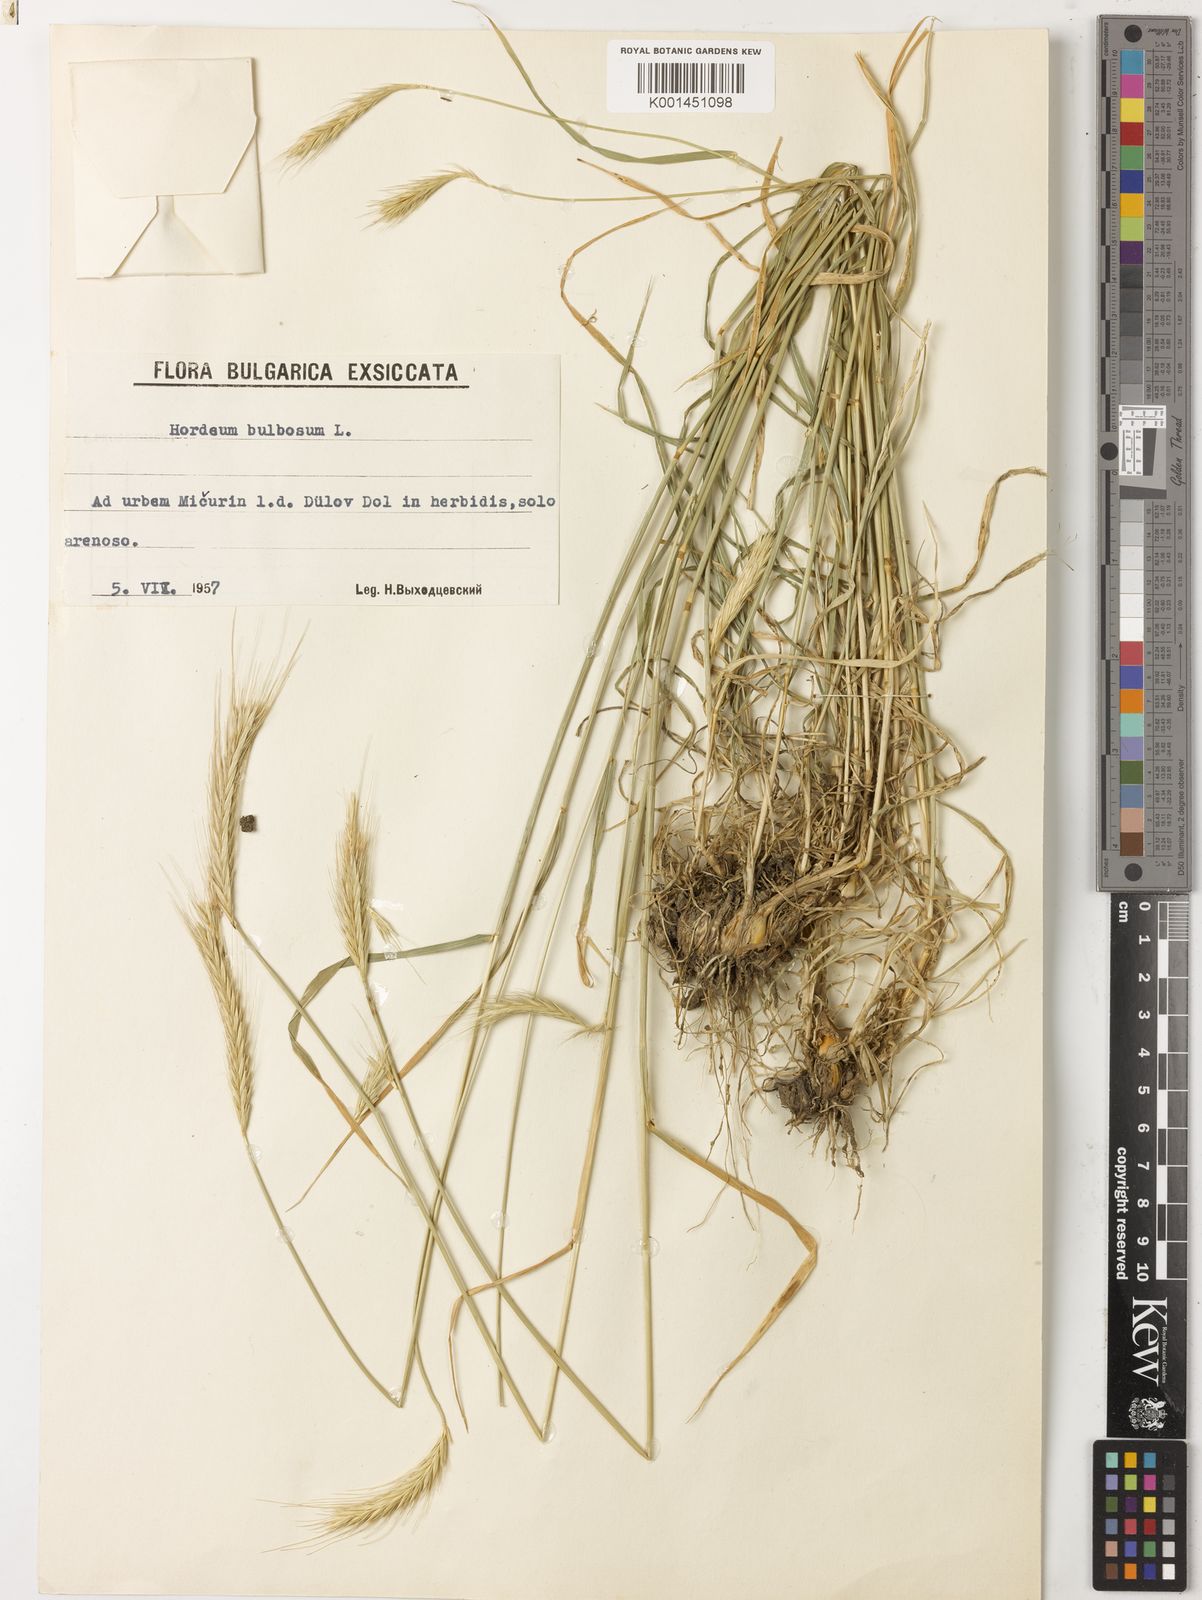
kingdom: Plantae
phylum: Tracheophyta
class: Liliopsida
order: Poales
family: Poaceae
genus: Hordeum
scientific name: Hordeum bulbosum
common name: Bulbous barley
